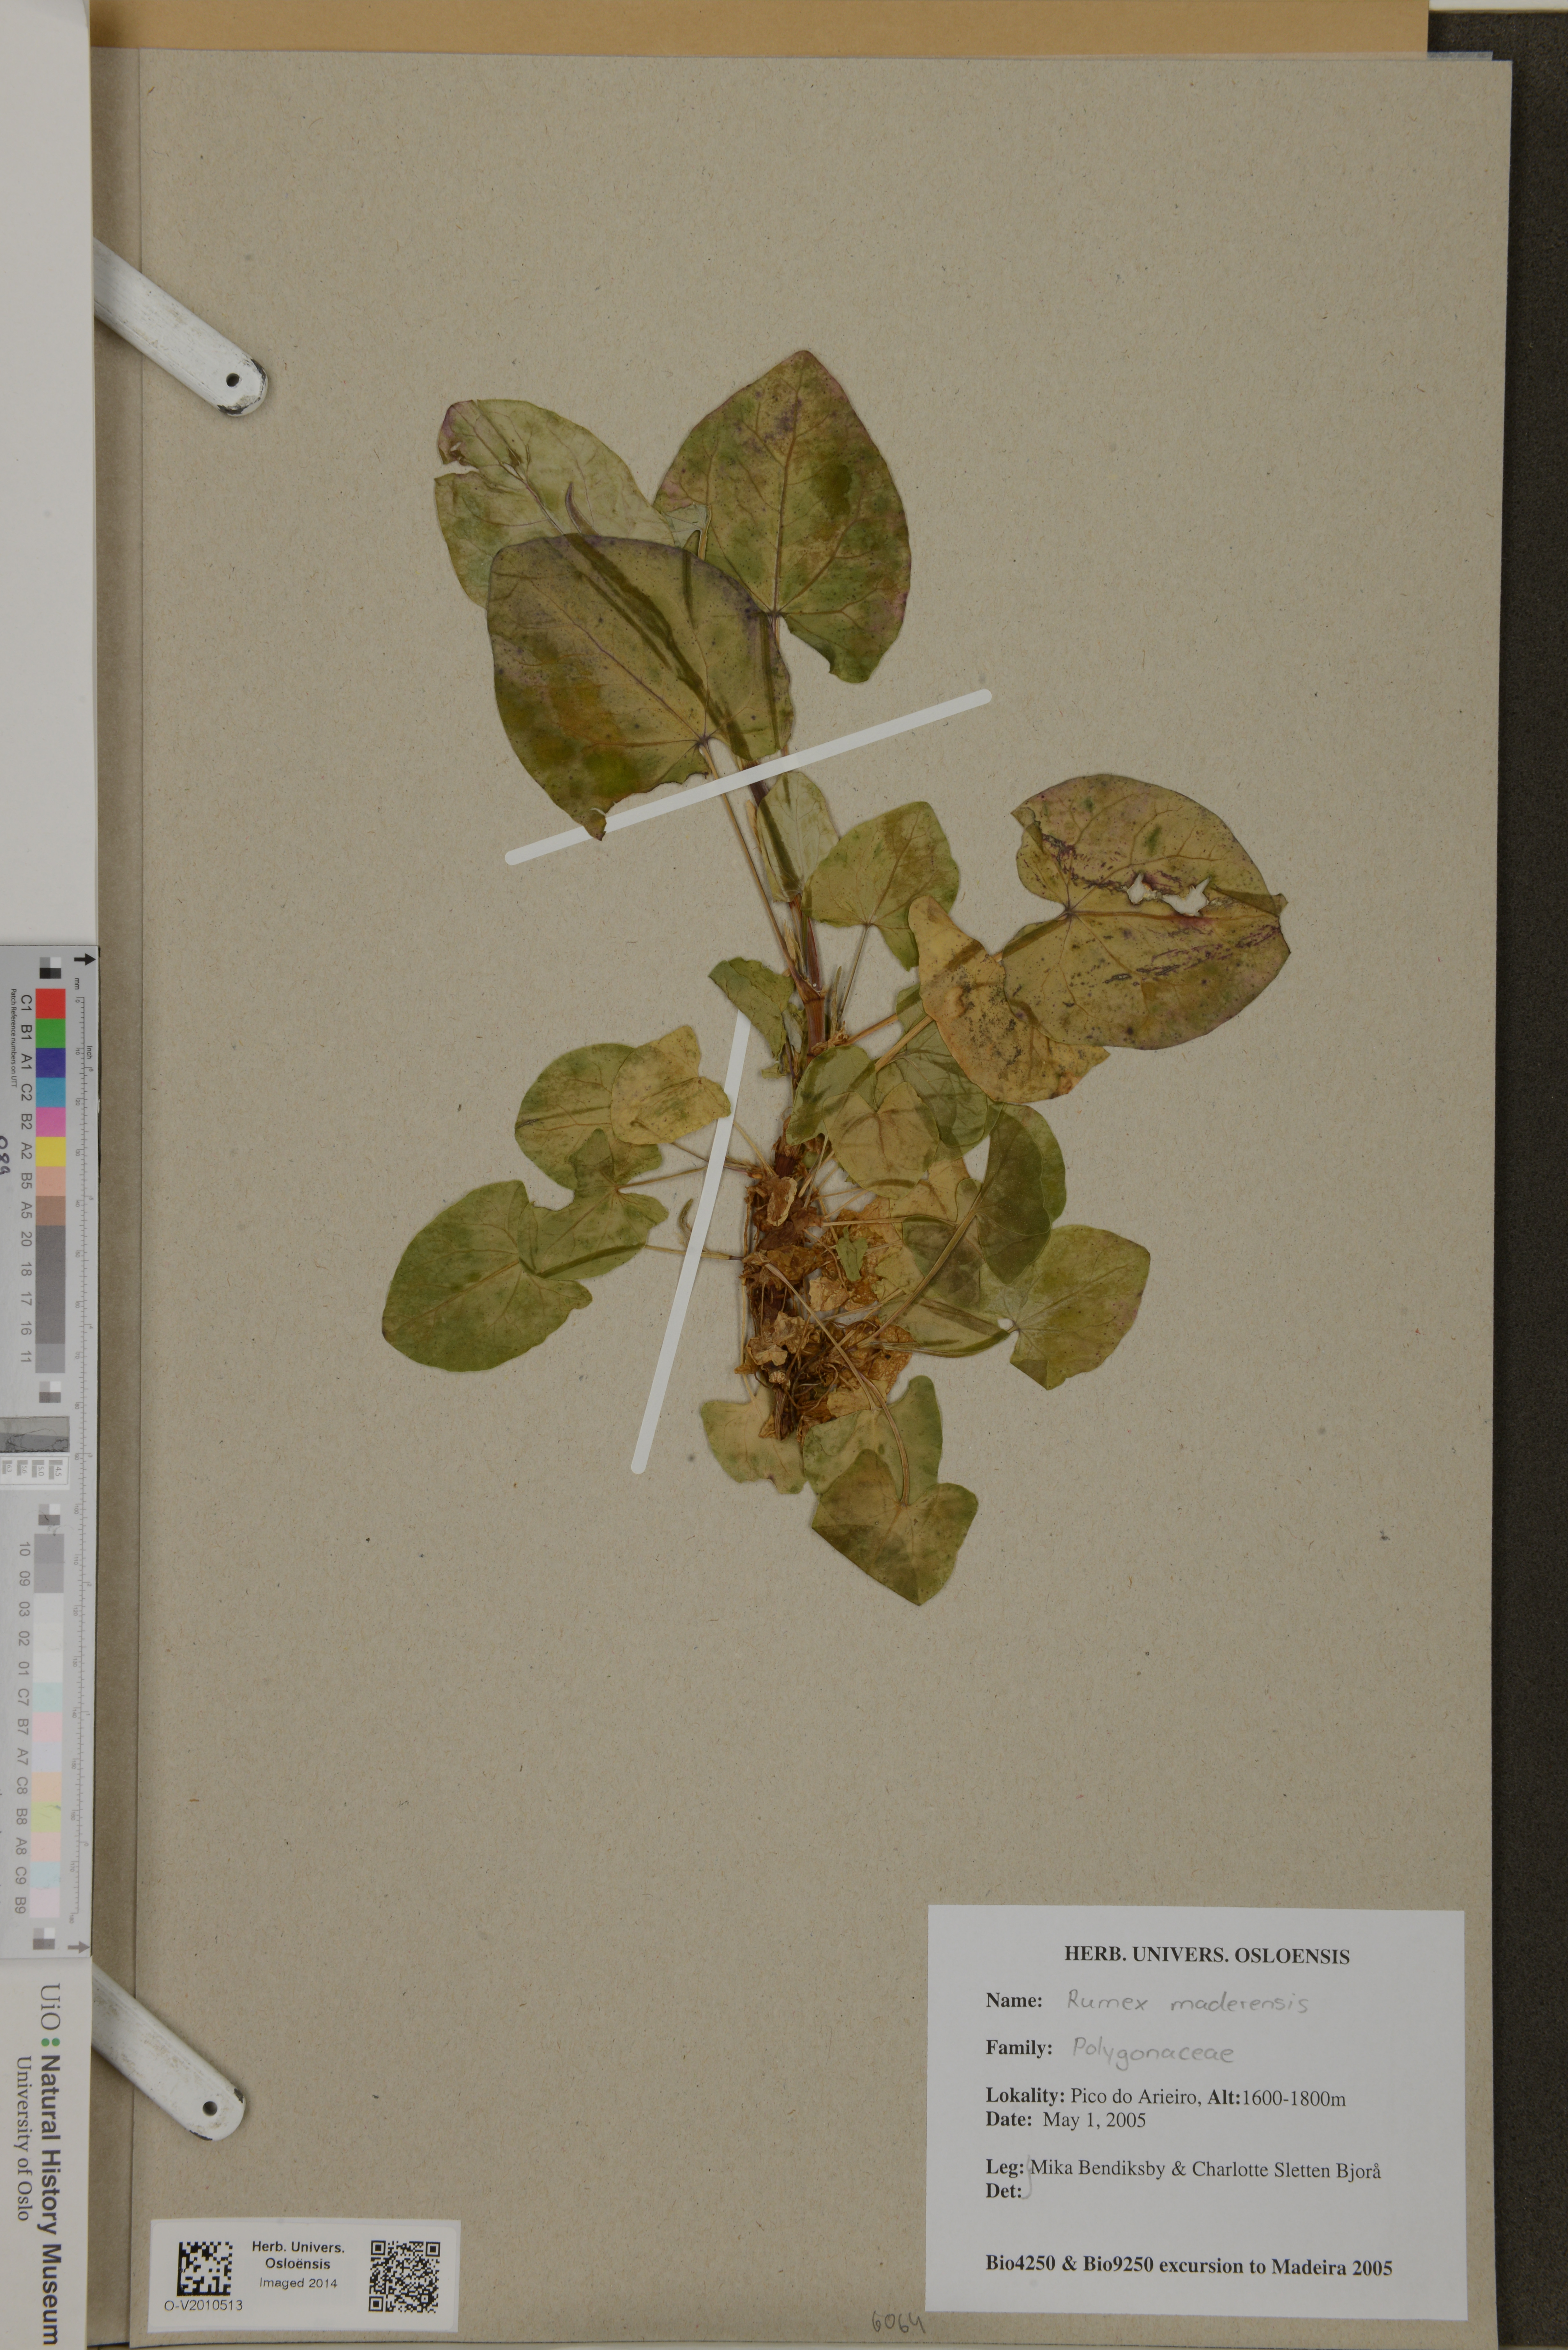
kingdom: Plantae
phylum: Tracheophyta
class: Magnoliopsida
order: Caryophyllales
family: Polygonaceae
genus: Rumex
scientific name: Rumex maderensis
